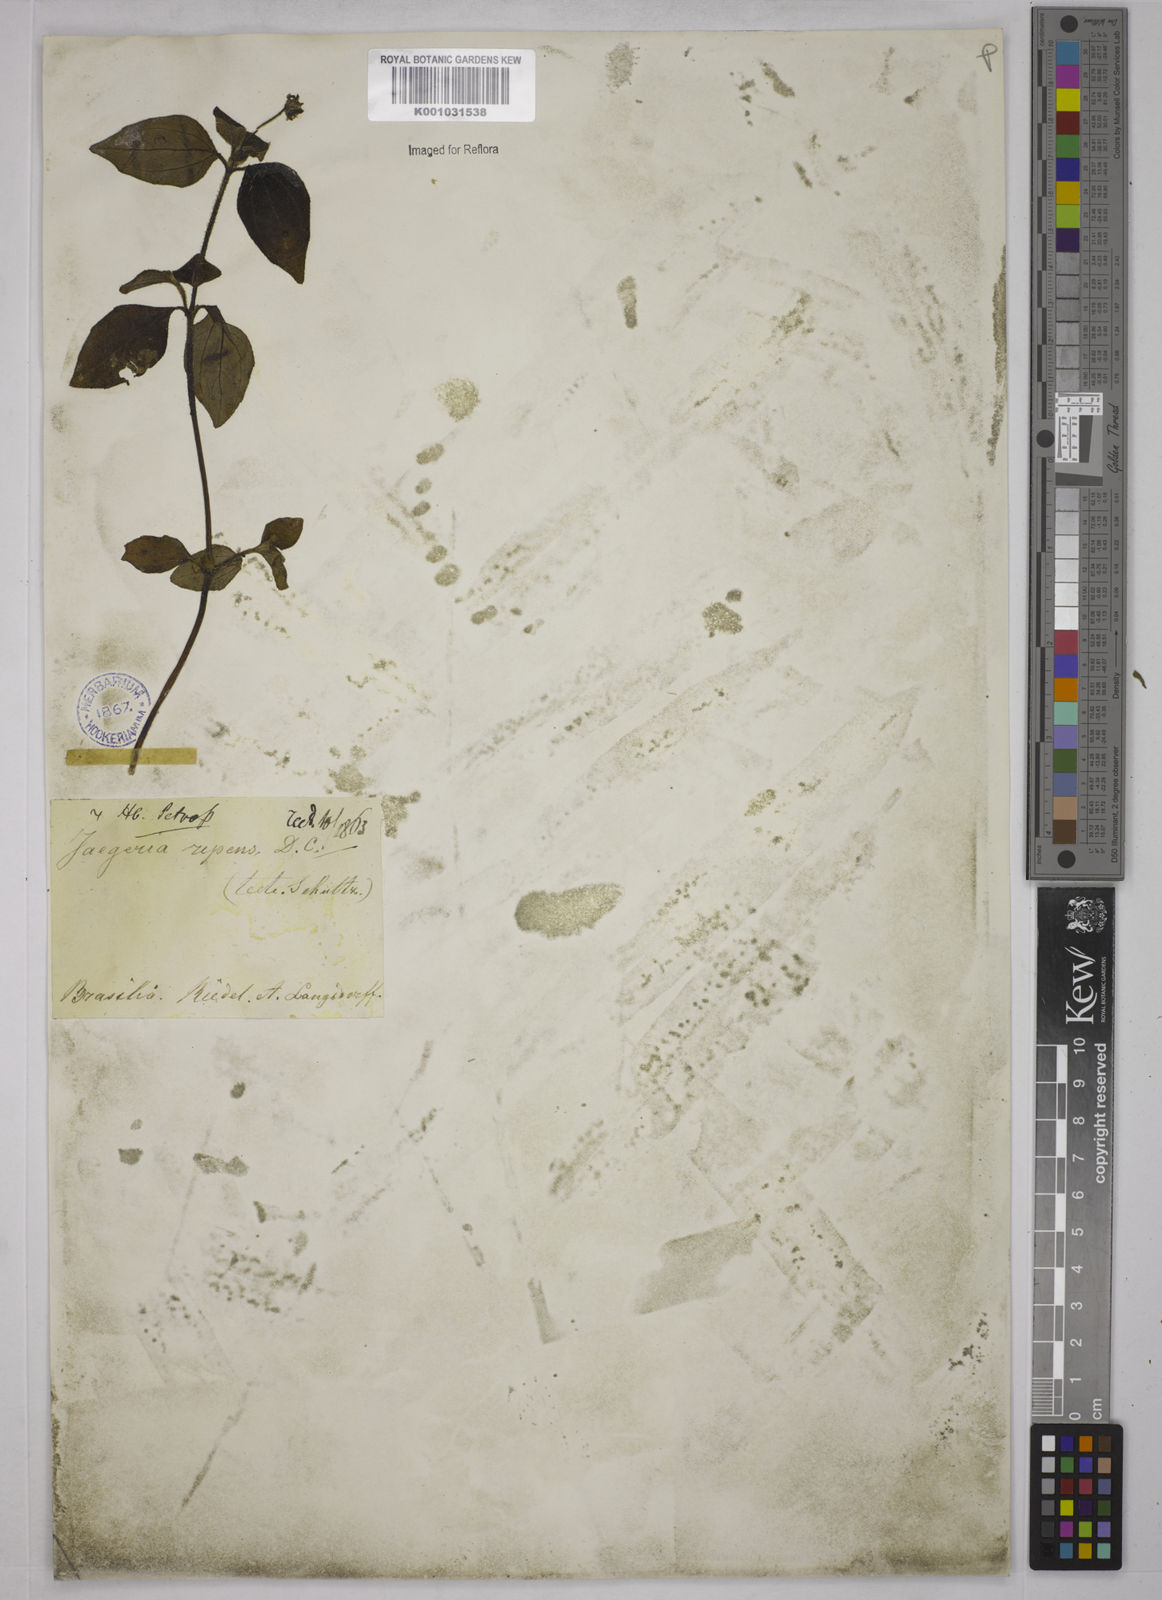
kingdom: Plantae
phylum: Tracheophyta
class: Magnoliopsida
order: Asterales
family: Asteraceae
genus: Jaegeria
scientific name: Jaegeria hirta
